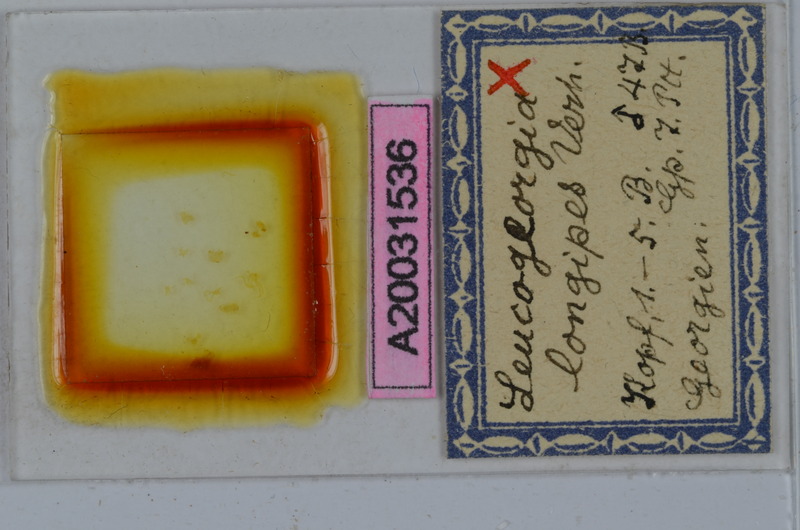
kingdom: Animalia
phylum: Arthropoda
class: Diplopoda
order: Julida
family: Julidae
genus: Leucogeorgia
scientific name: Leucogeorgia longipes
